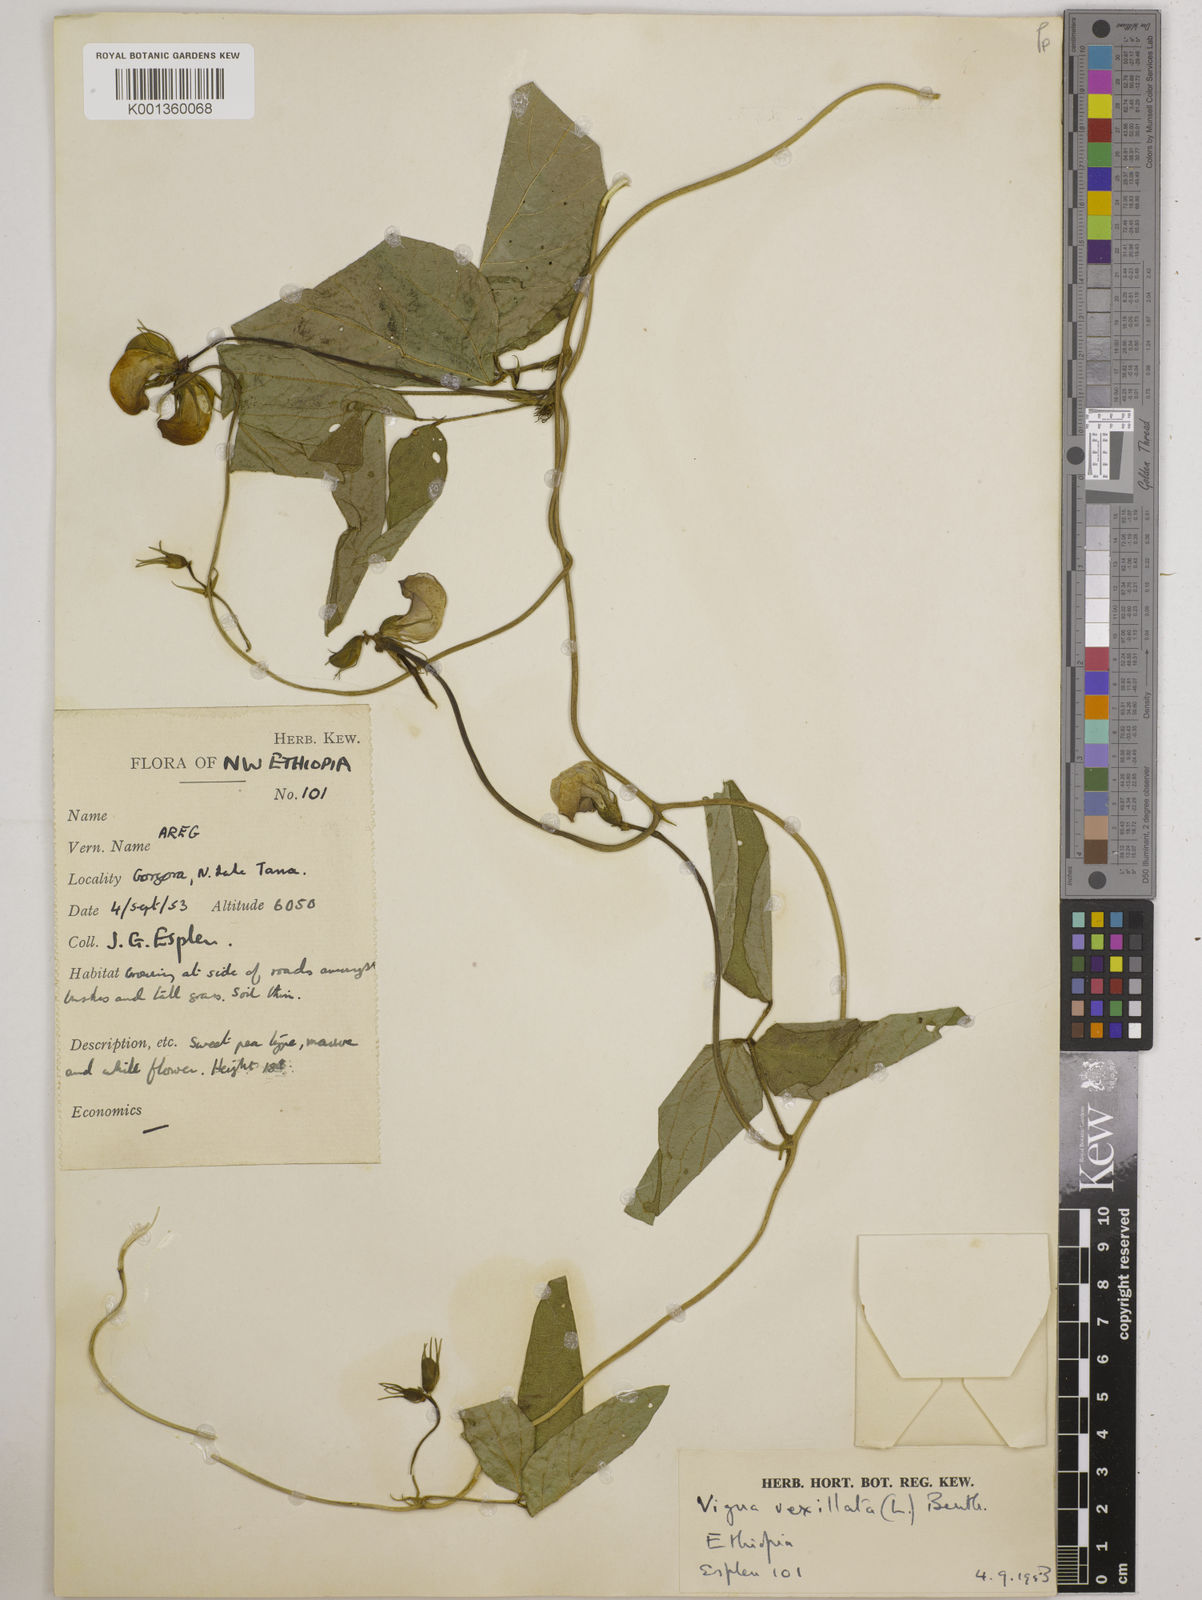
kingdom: Plantae
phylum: Tracheophyta
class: Magnoliopsida
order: Fabales
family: Fabaceae
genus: Vigna
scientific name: Vigna vexillata
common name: Zombi pea
